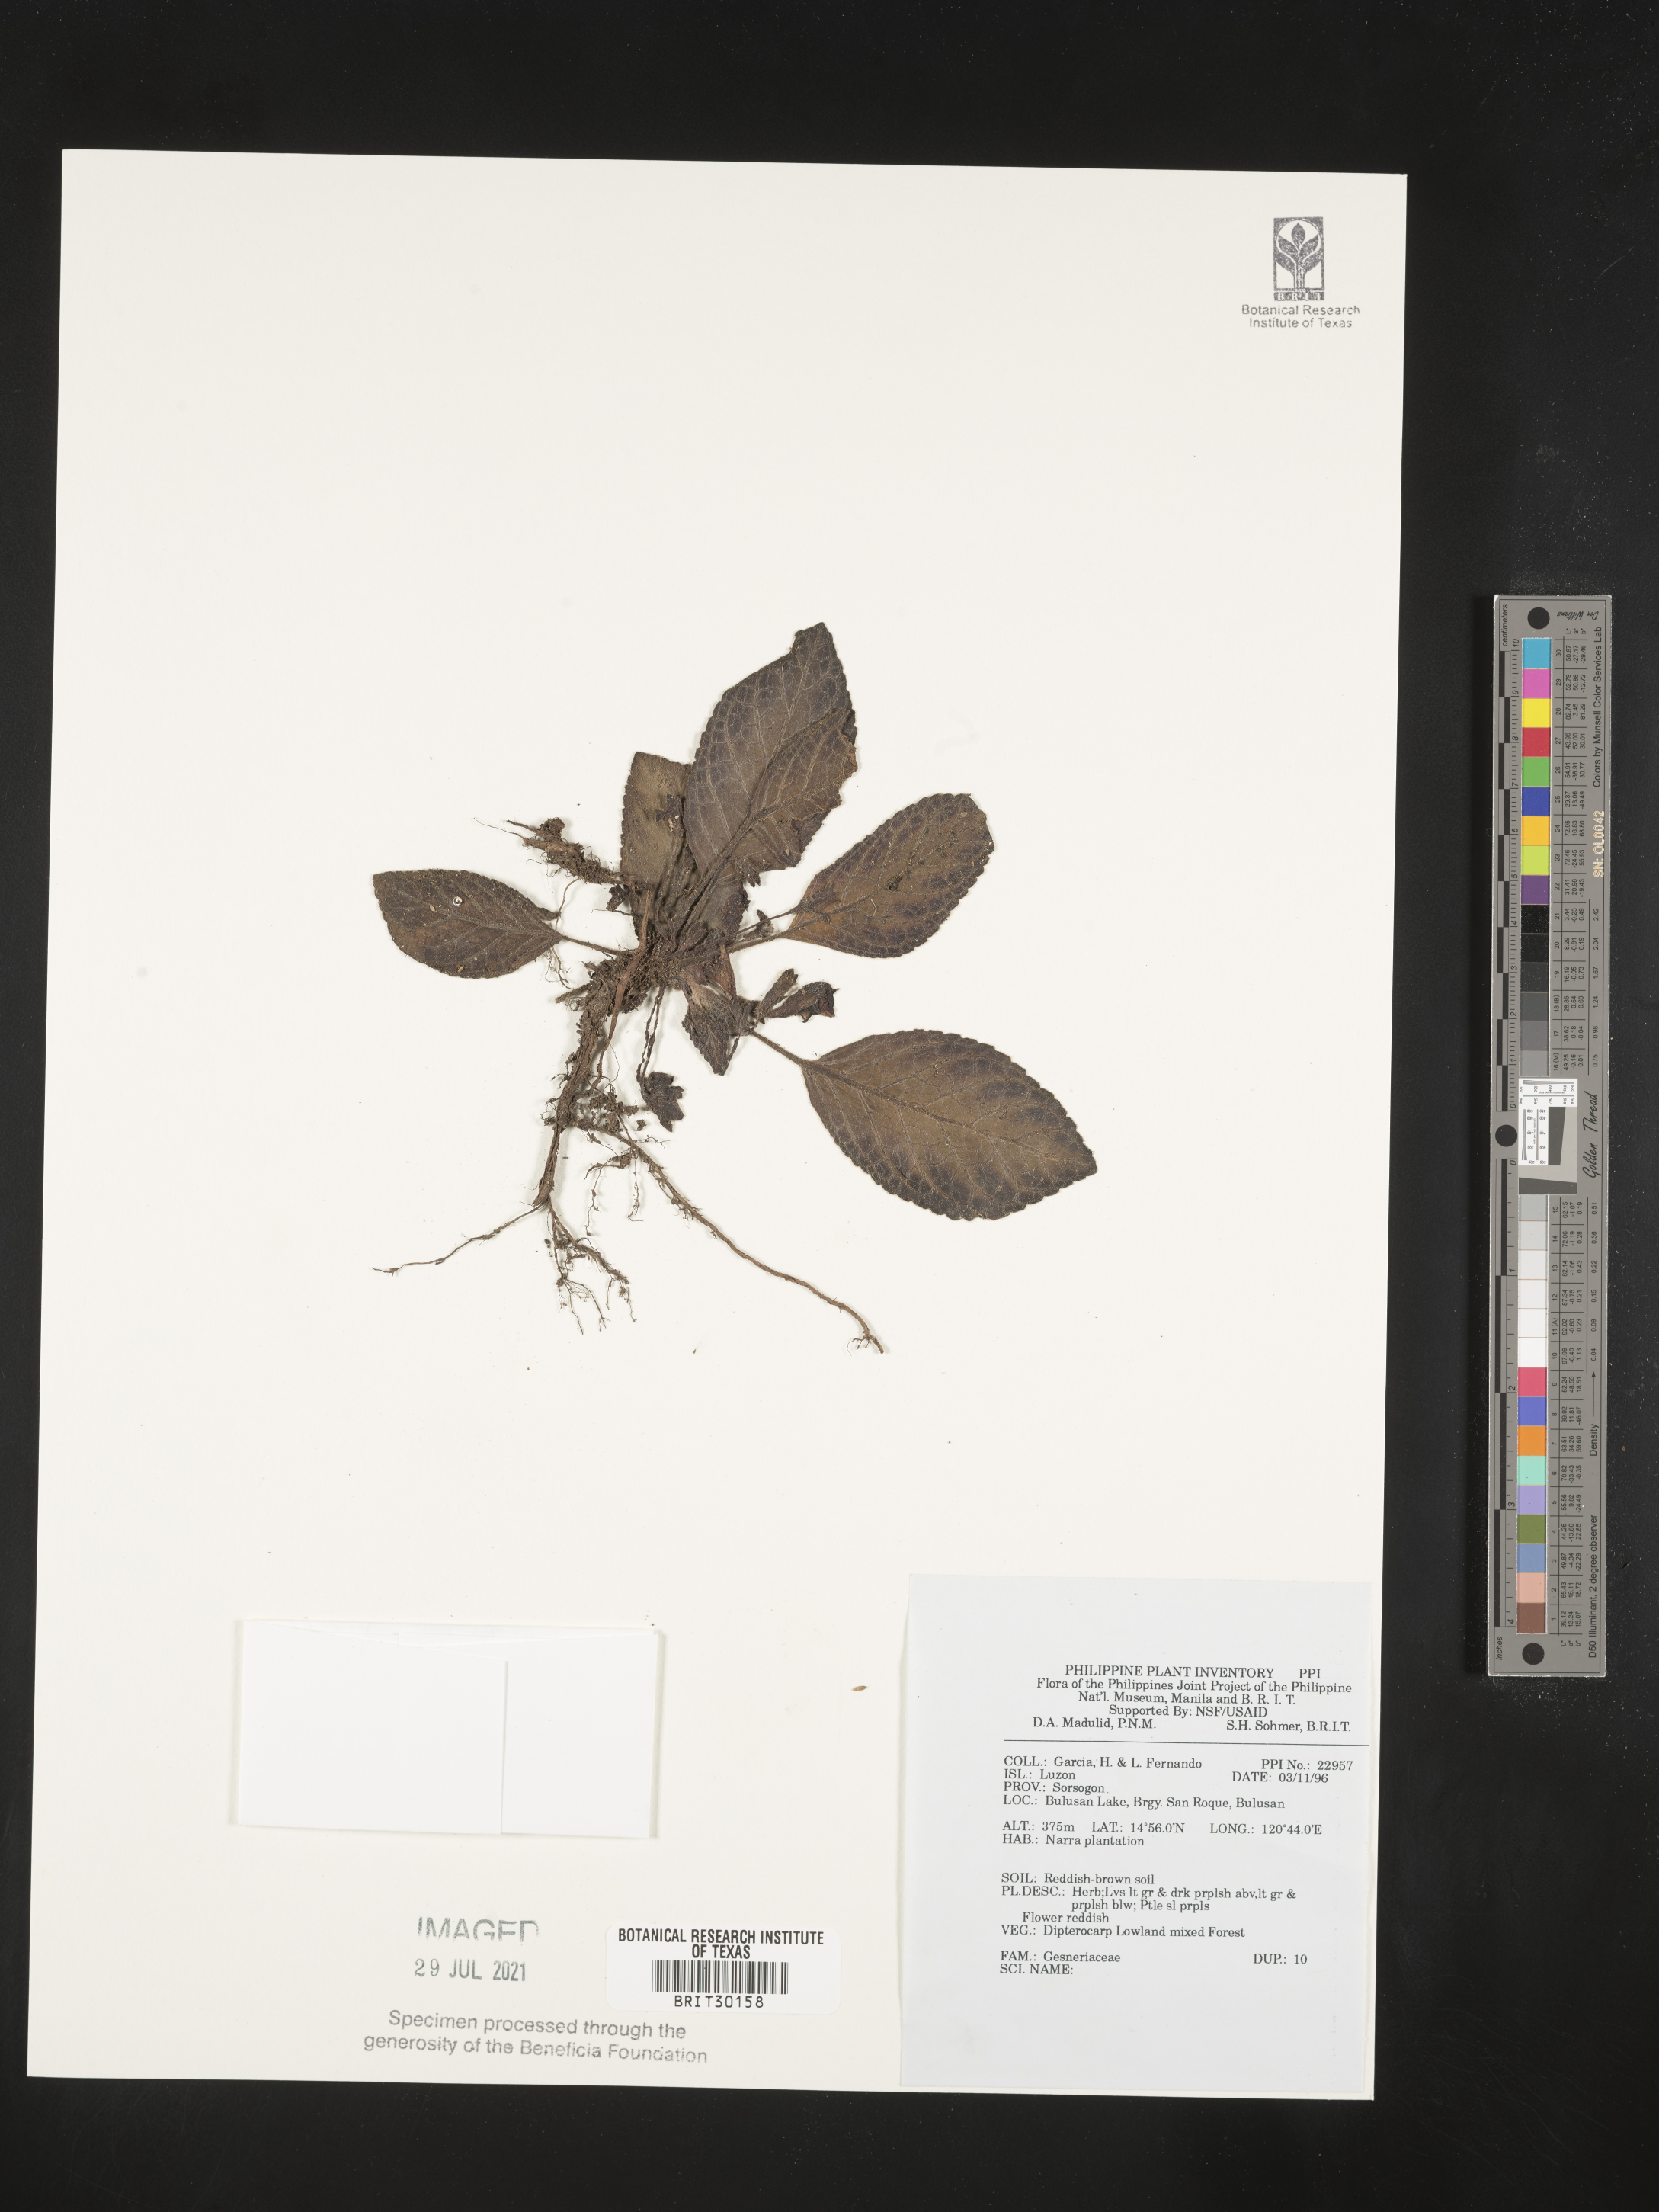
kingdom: Plantae
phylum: Tracheophyta
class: Magnoliopsida
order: Lamiales
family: Gesneriaceae
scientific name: Gesneriaceae
